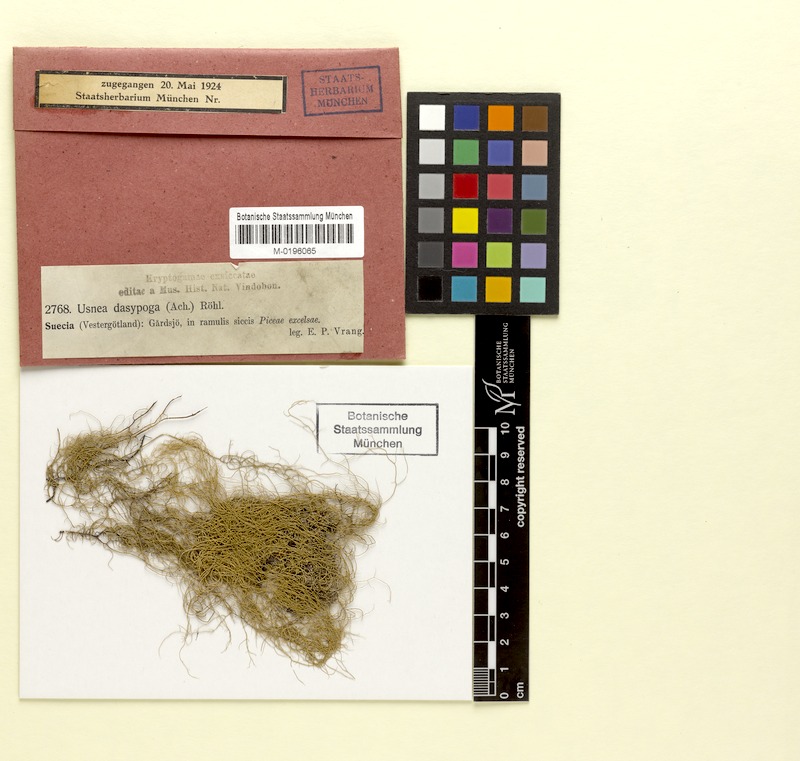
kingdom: Fungi
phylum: Ascomycota
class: Lecanoromycetes
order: Lecanorales
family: Parmeliaceae
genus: Usnea
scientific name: Usnea dasopoga
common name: Fishbone beard lichen
